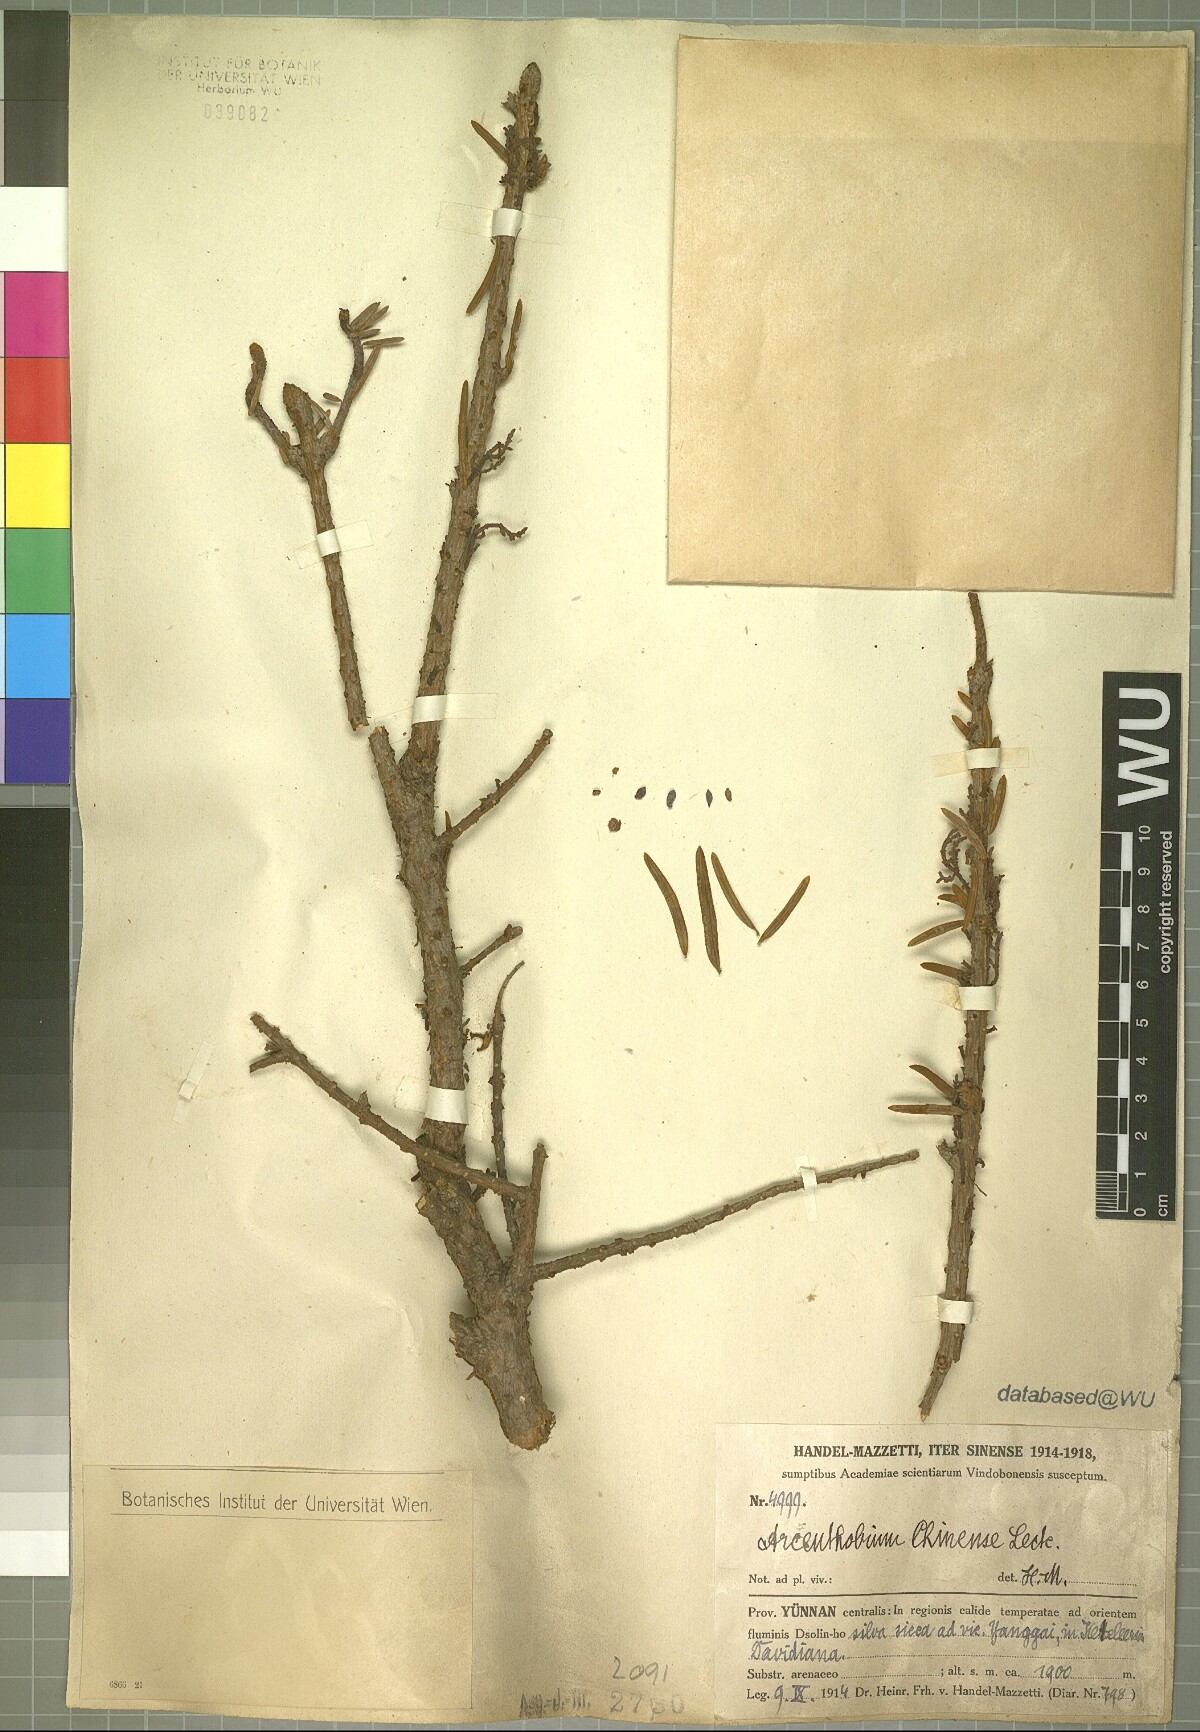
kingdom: Plantae
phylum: Tracheophyta
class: Magnoliopsida
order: Santalales
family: Viscaceae
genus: Arceuthobium
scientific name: Arceuthobium chinense
